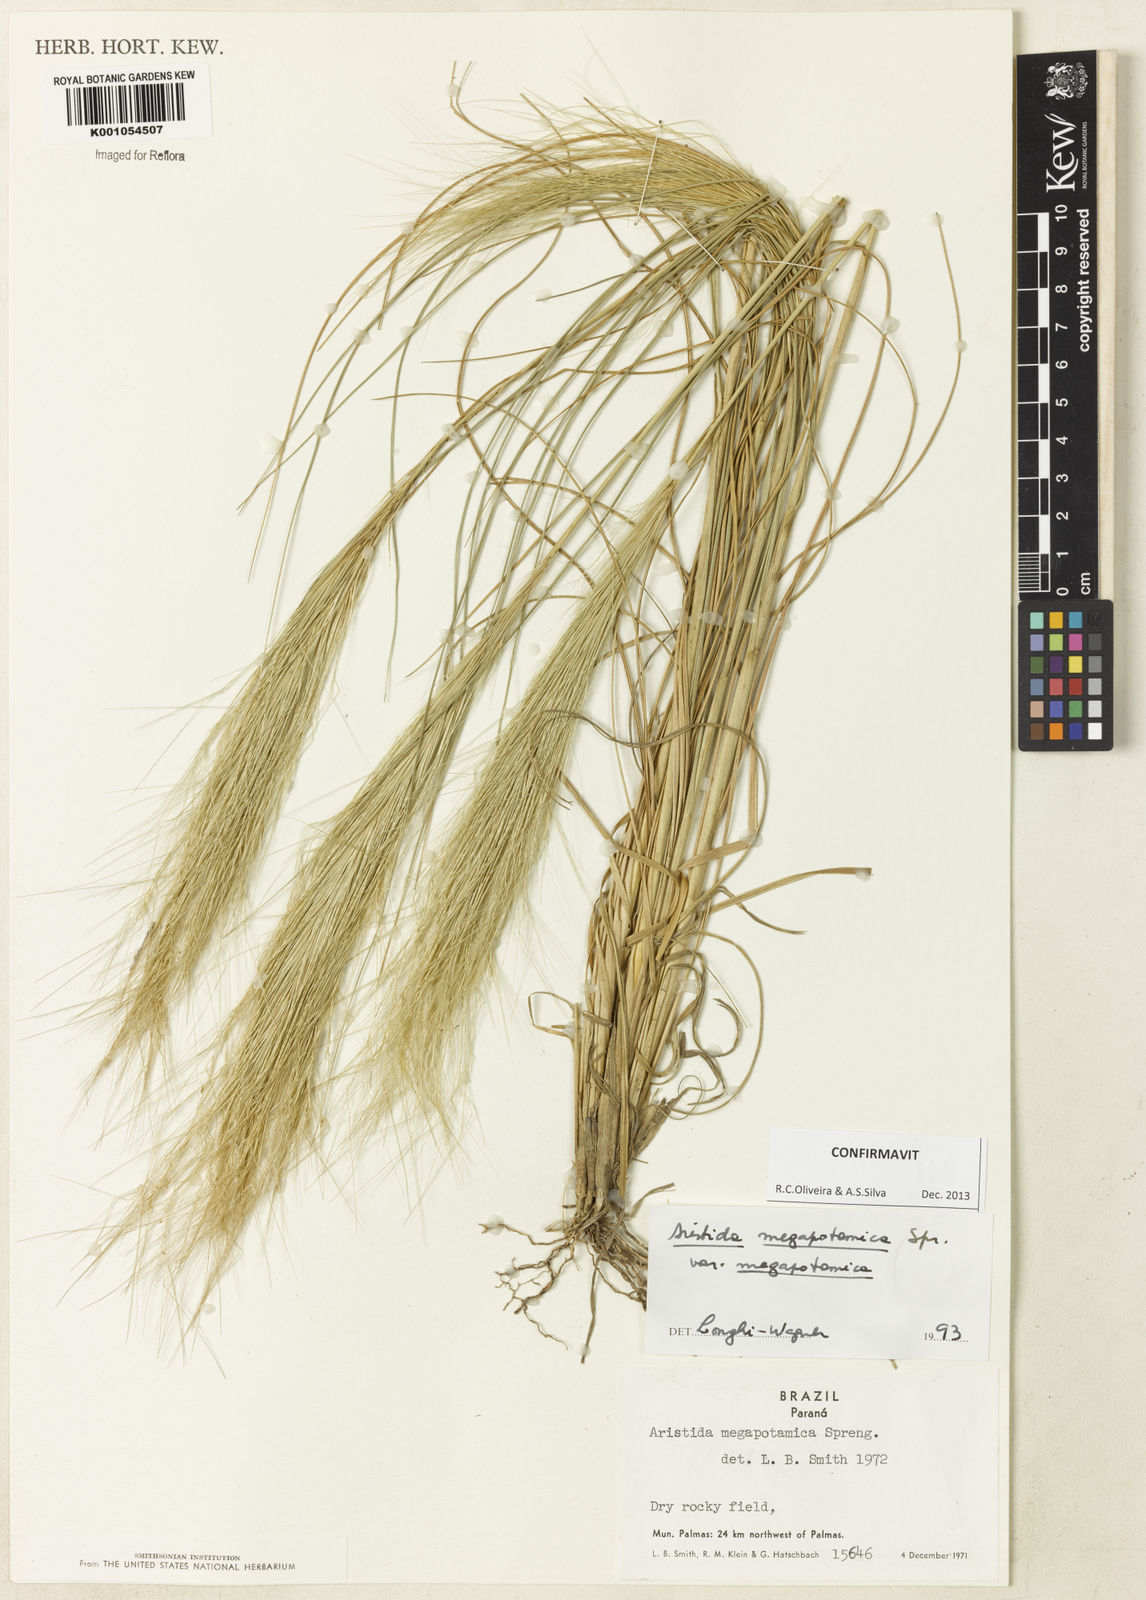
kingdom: Plantae
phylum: Tracheophyta
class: Liliopsida
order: Poales
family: Poaceae
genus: Aristida
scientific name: Aristida megapotamica
